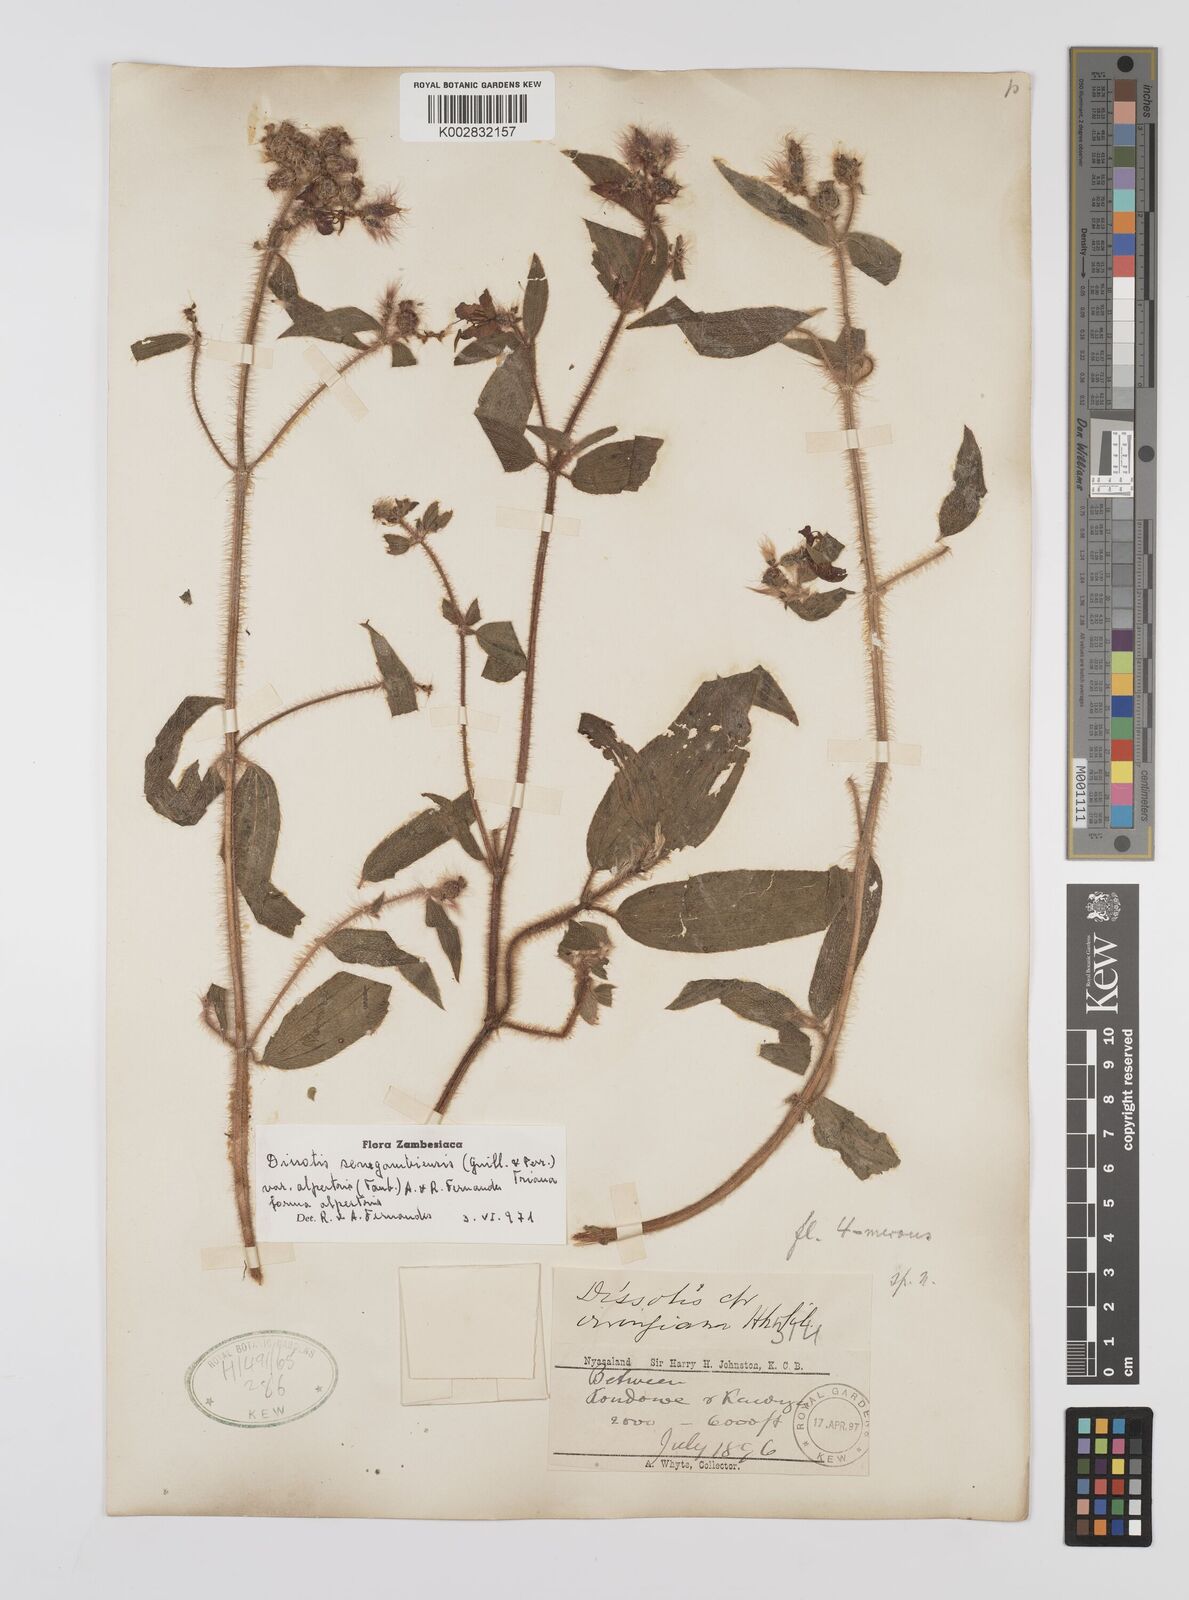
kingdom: Plantae
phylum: Tracheophyta
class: Magnoliopsida
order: Myrtales
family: Melastomataceae
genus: Nerophila
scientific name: Nerophila senegambiensis
